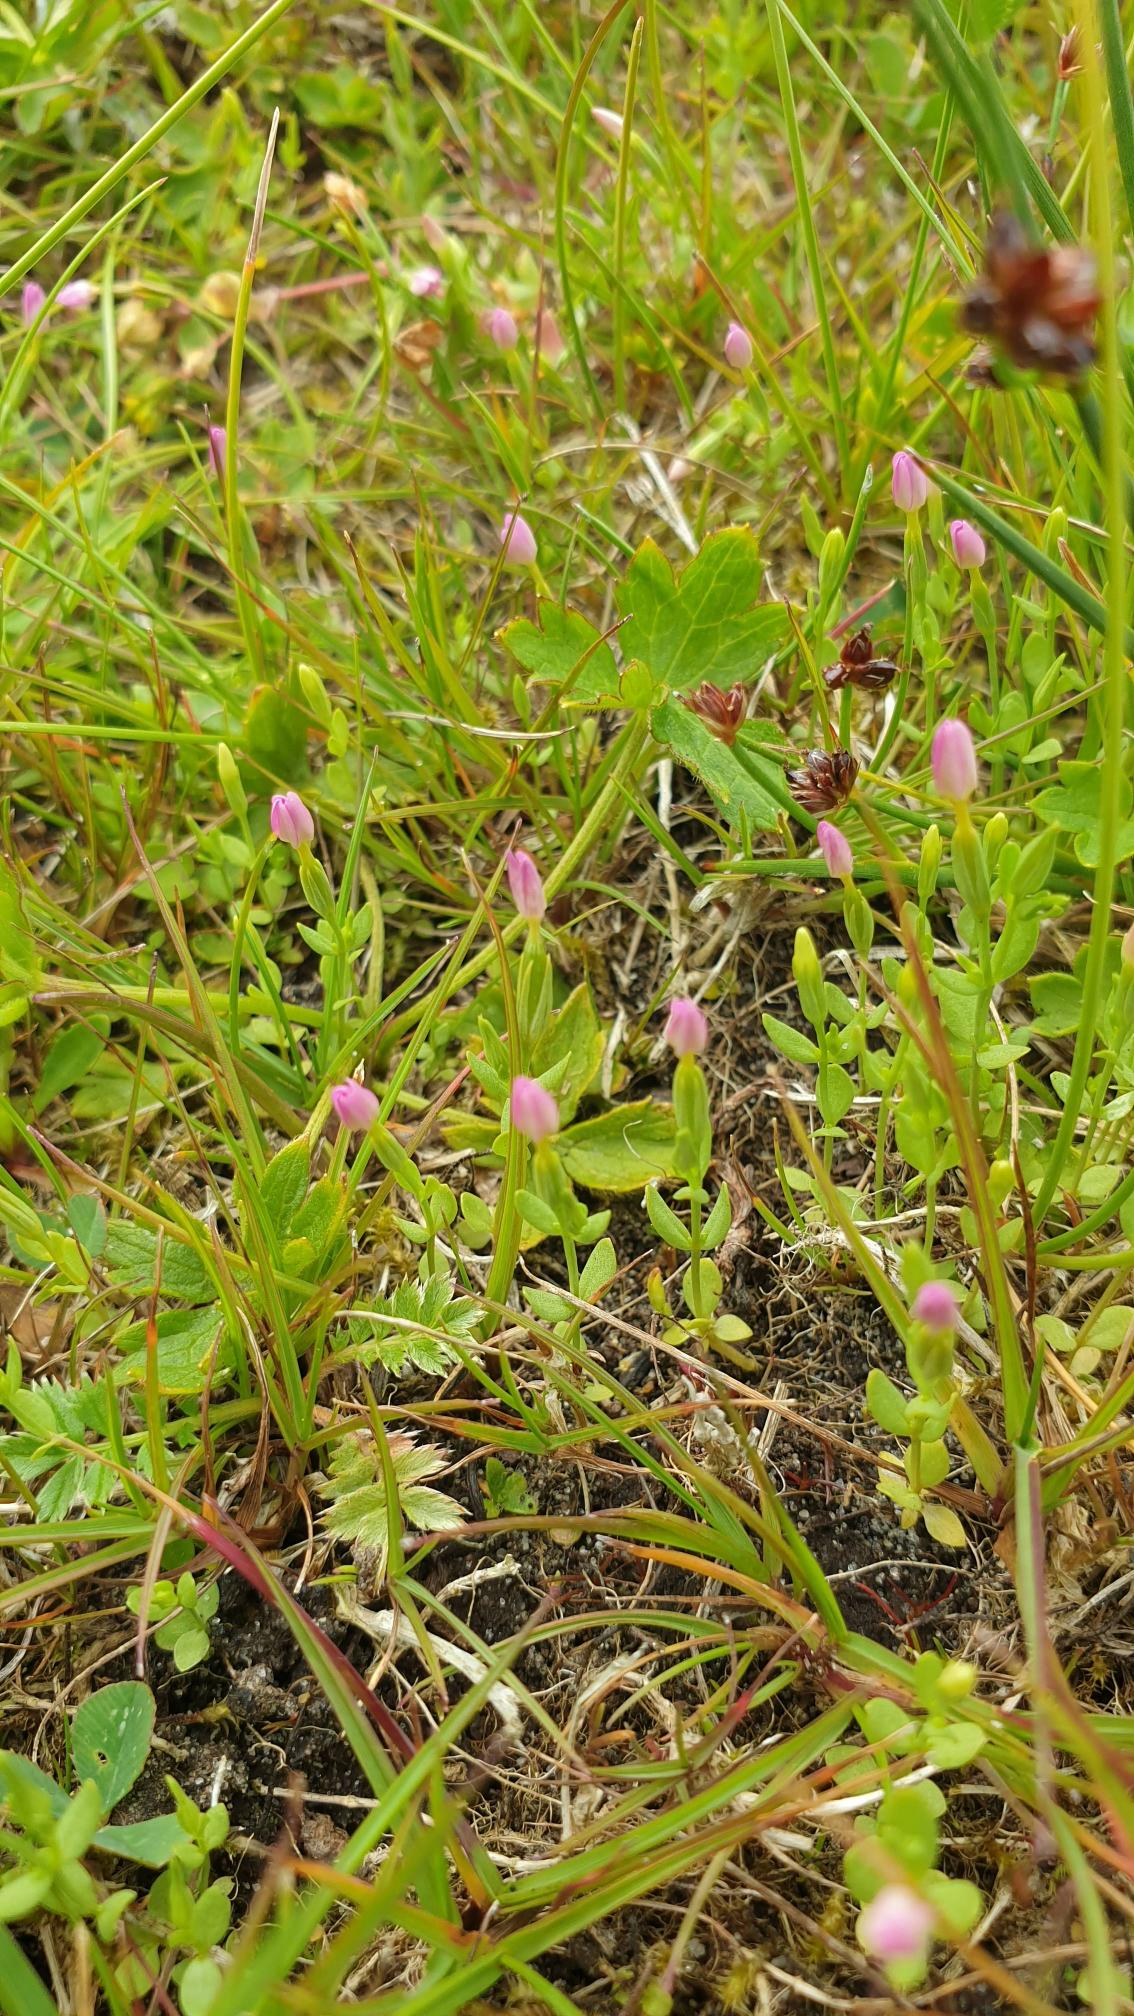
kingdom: Plantae
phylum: Tracheophyta
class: Magnoliopsida
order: Gentianales
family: Gentianaceae
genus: Centaurium
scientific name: Centaurium pulchellum
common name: Liden tusindgylden
